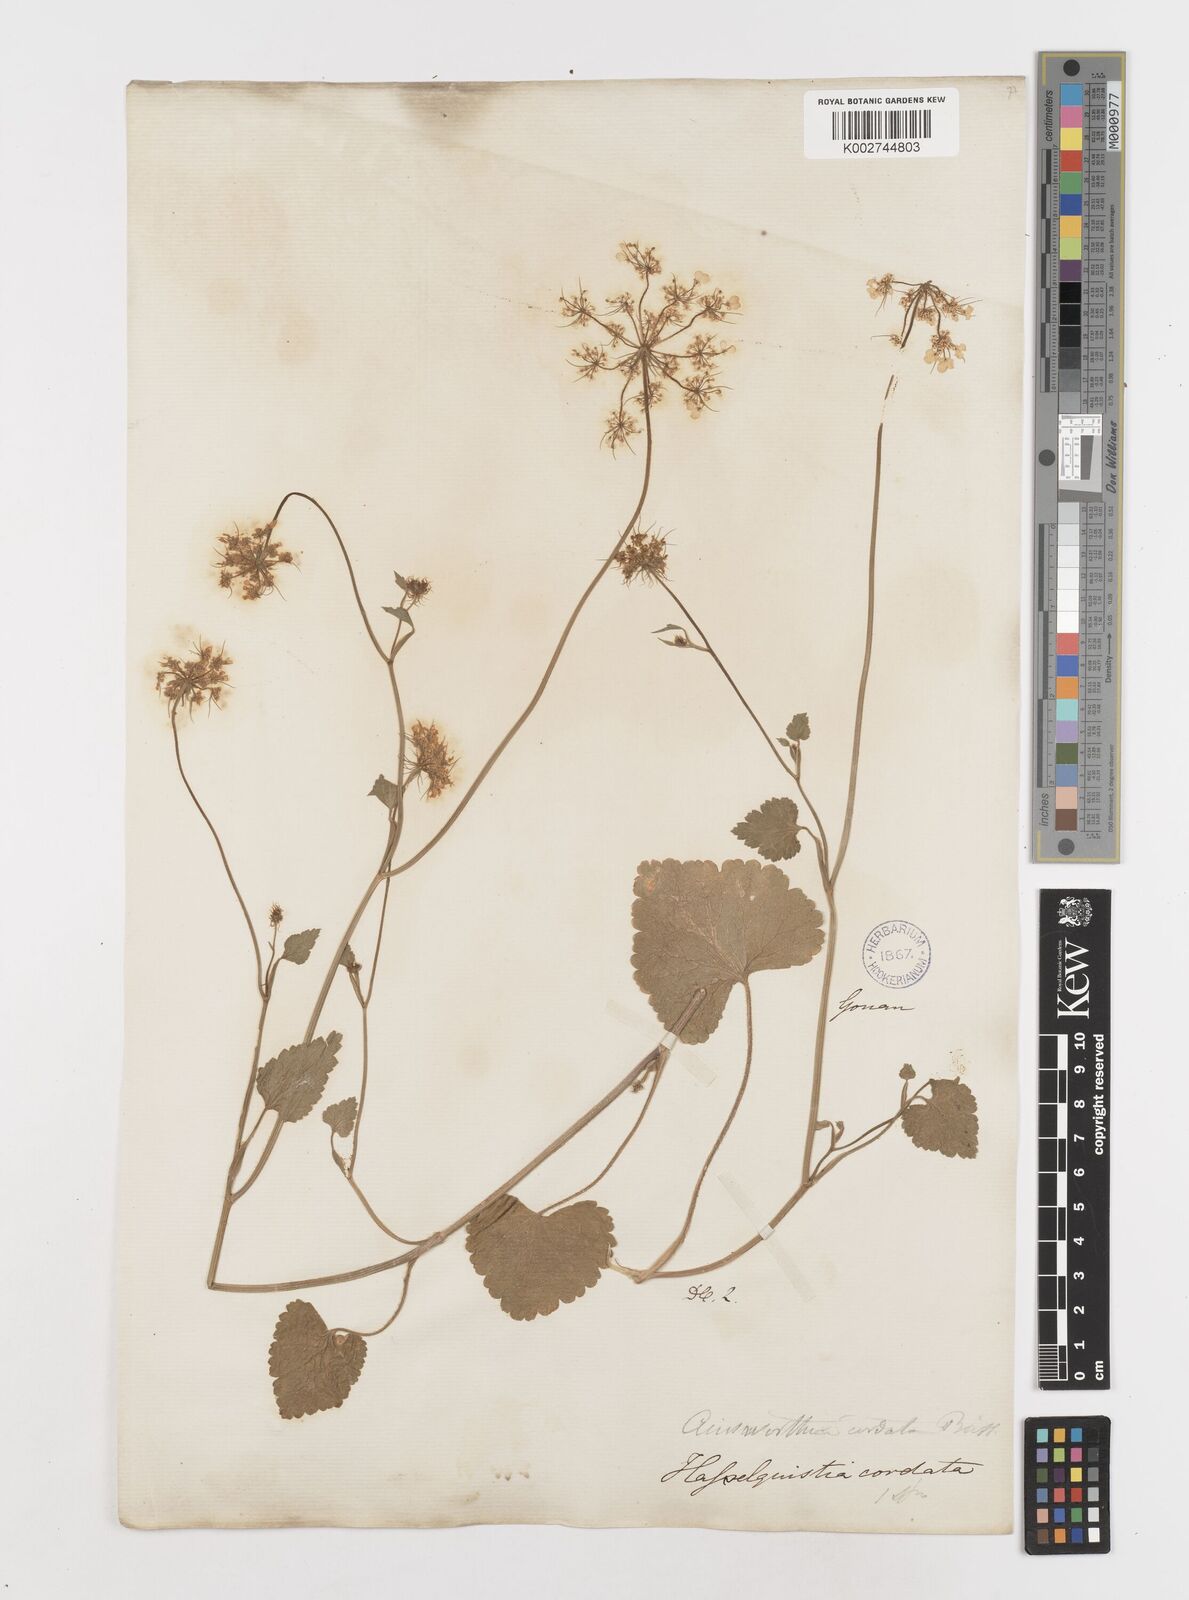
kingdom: Plantae
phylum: Tracheophyta
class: Magnoliopsida
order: Apiales
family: Apiaceae
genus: Ainsworthia
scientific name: Ainsworthia cordata
